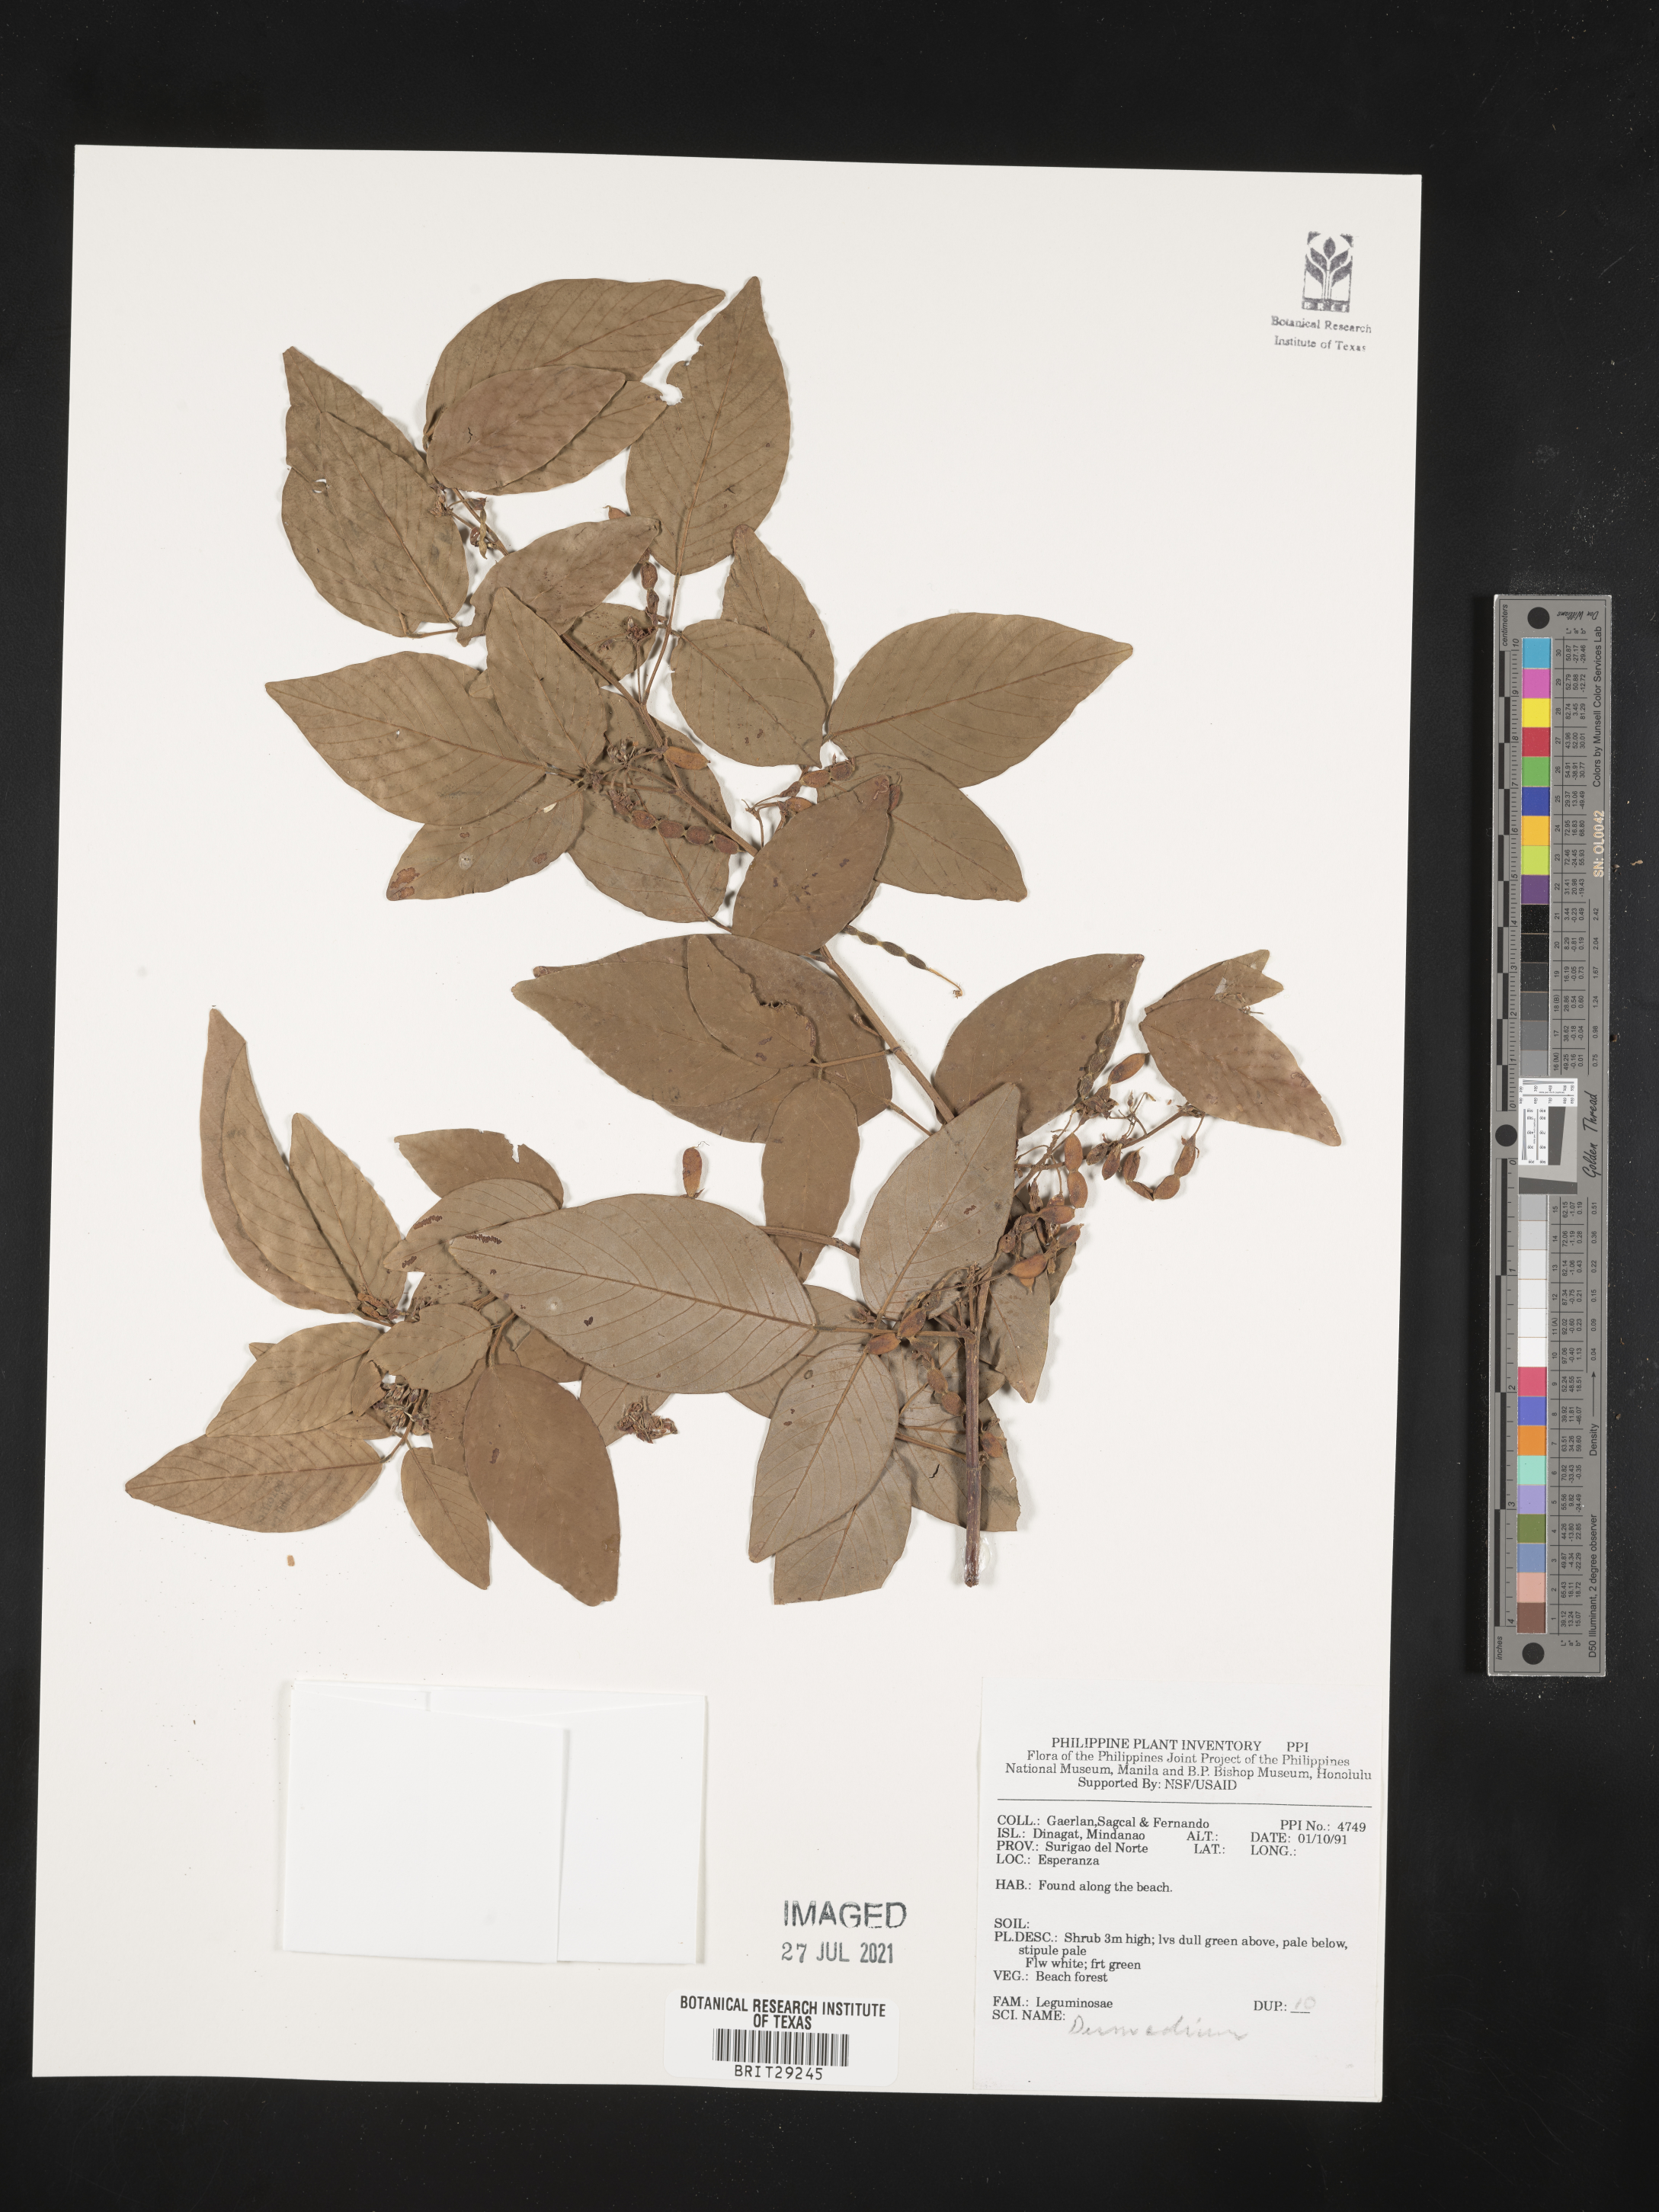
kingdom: Plantae
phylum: Tracheophyta
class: Magnoliopsida
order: Fabales
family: Fabaceae
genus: Desmodium
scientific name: Desmodium
